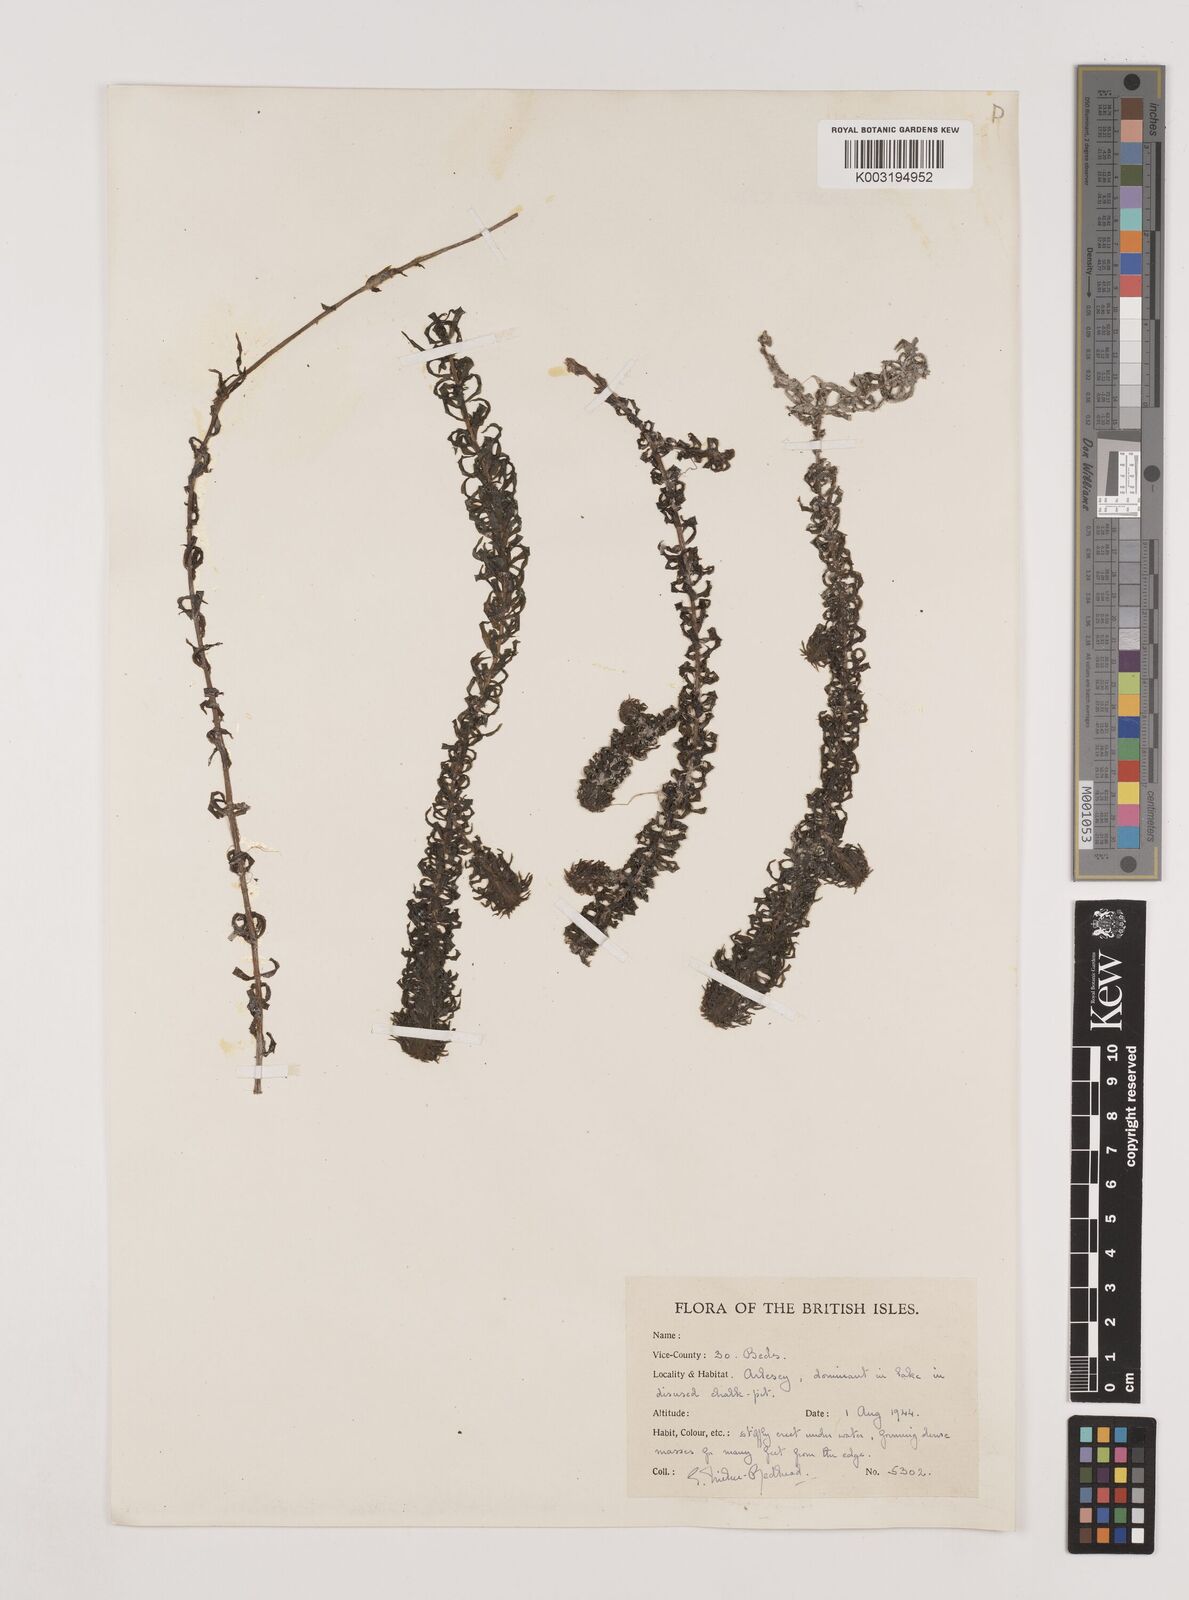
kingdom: Plantae
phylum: Tracheophyta
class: Liliopsida
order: Alismatales
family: Hydrocharitaceae
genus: Lagarosiphon
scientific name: Lagarosiphon major
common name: Curly waterweed
